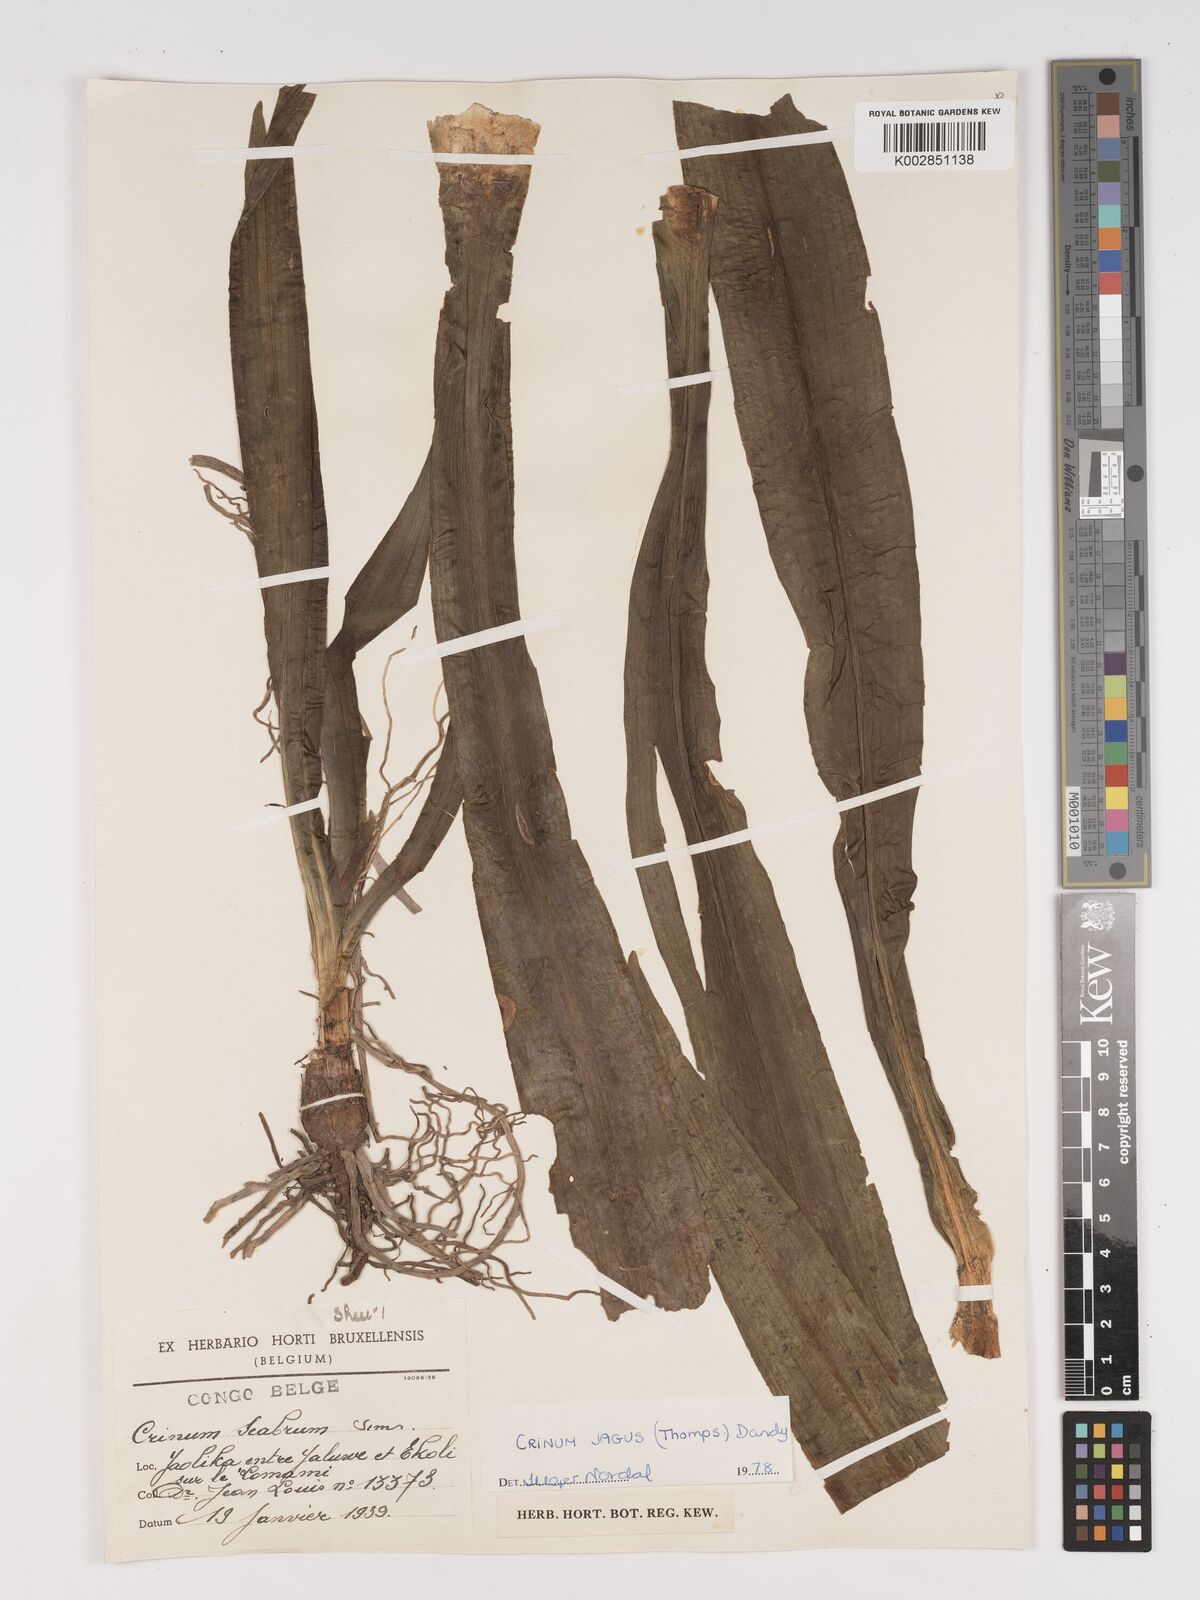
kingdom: Plantae
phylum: Tracheophyta
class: Liliopsida
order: Asparagales
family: Amaryllidaceae
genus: Crinum
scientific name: Crinum jagus
